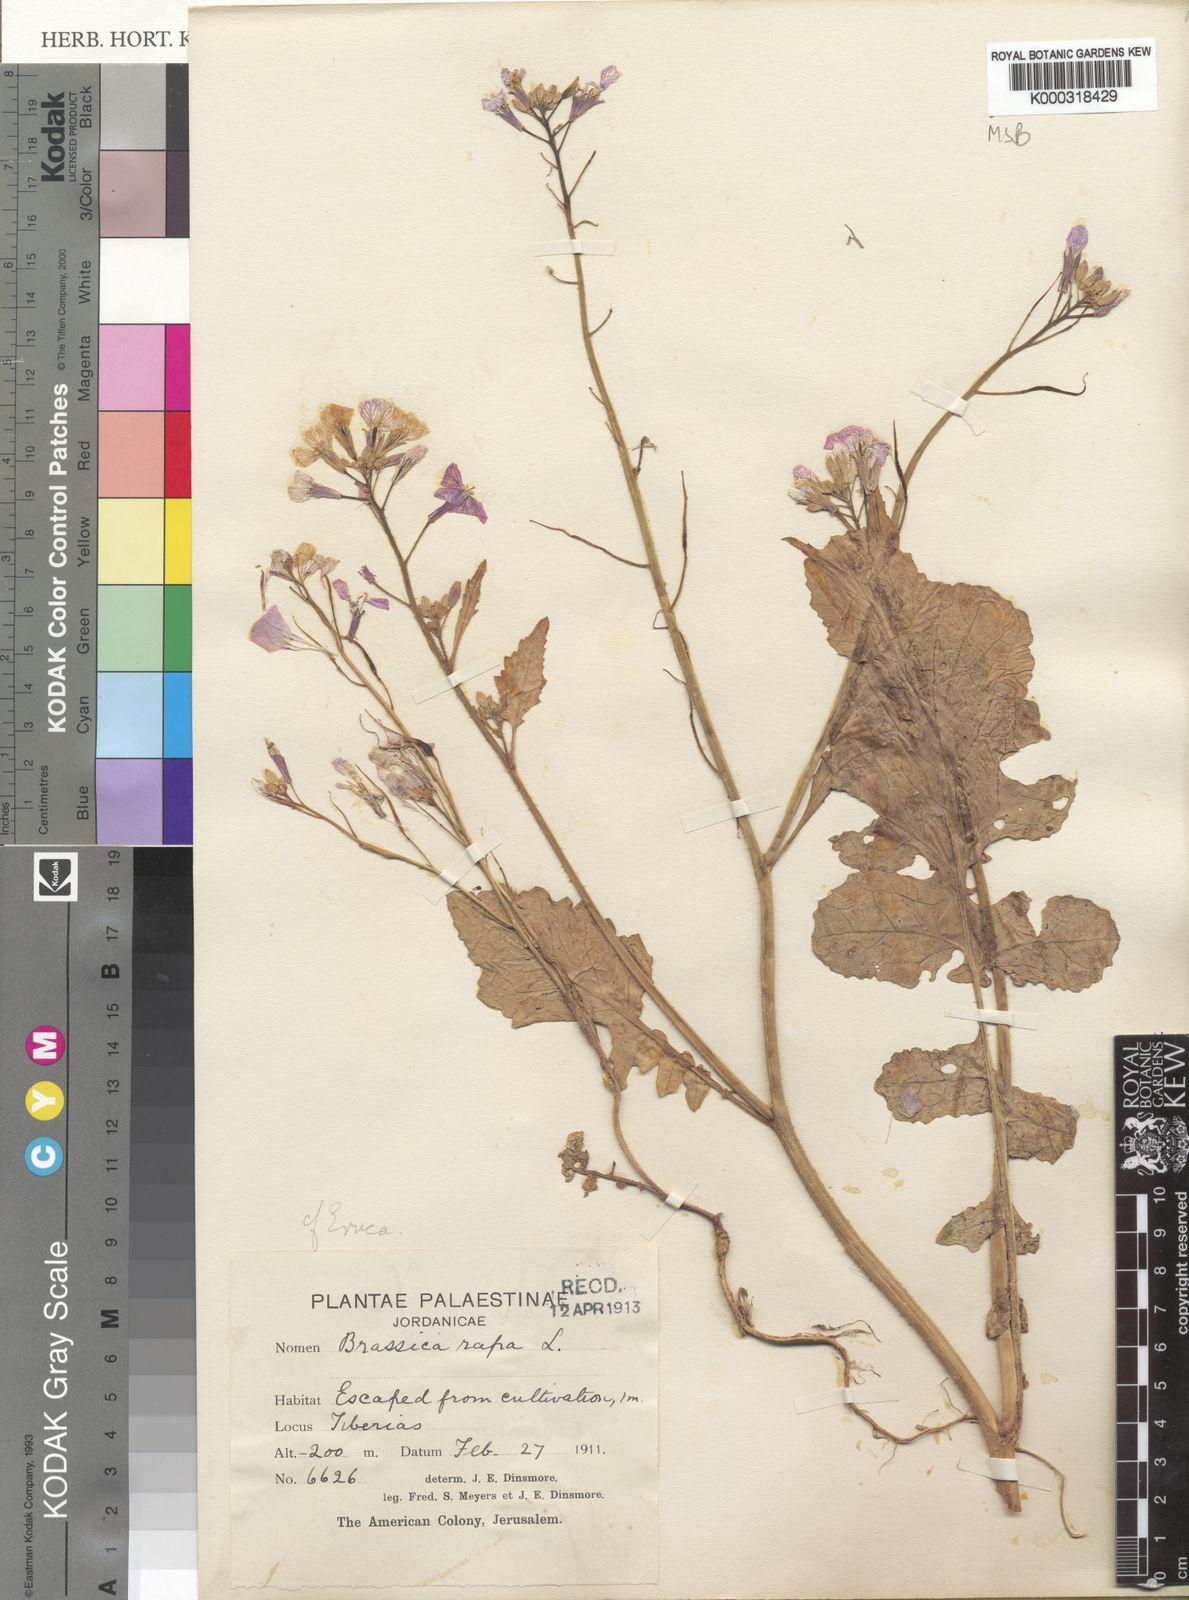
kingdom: Plantae
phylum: Tracheophyta
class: Magnoliopsida
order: Brassicales
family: Brassicaceae
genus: Raphanus
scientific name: Raphanus raphanistrum
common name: Wild radish
